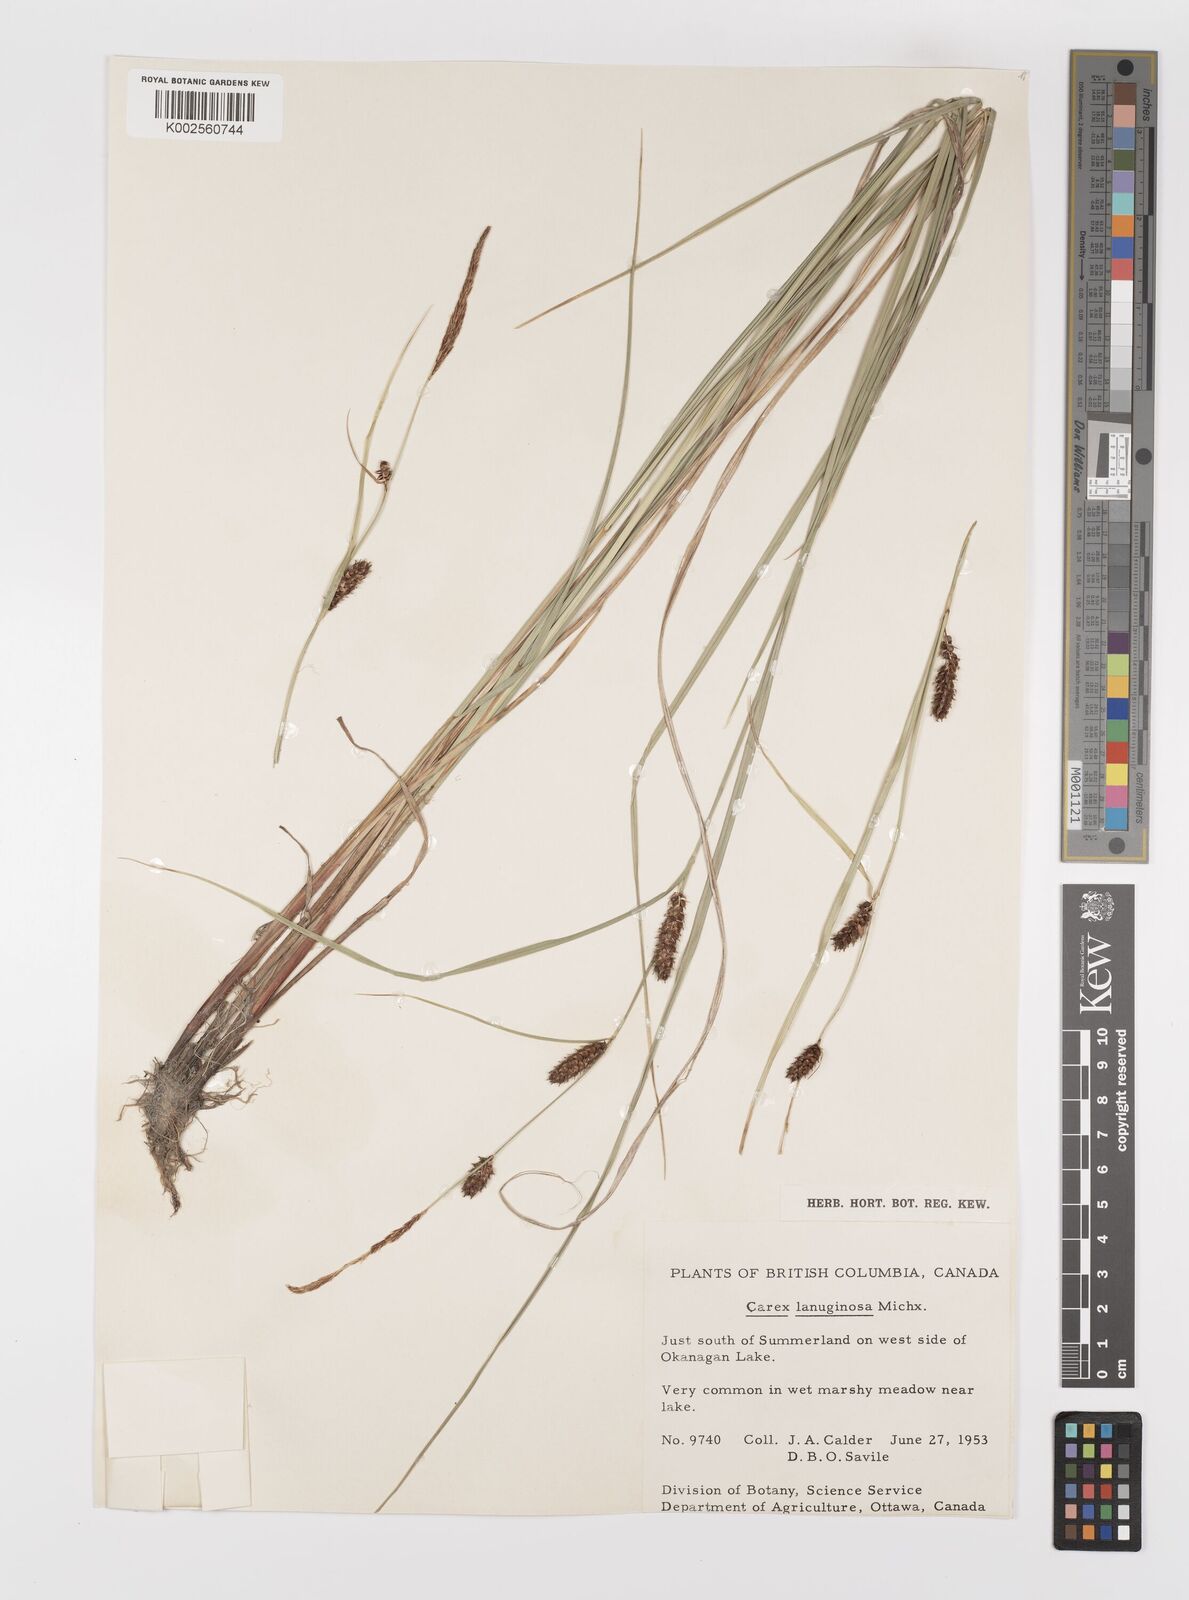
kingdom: Plantae
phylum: Tracheophyta
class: Liliopsida
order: Poales
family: Cyperaceae
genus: Carex
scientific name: Carex lasiocarpa
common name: Slender sedge
